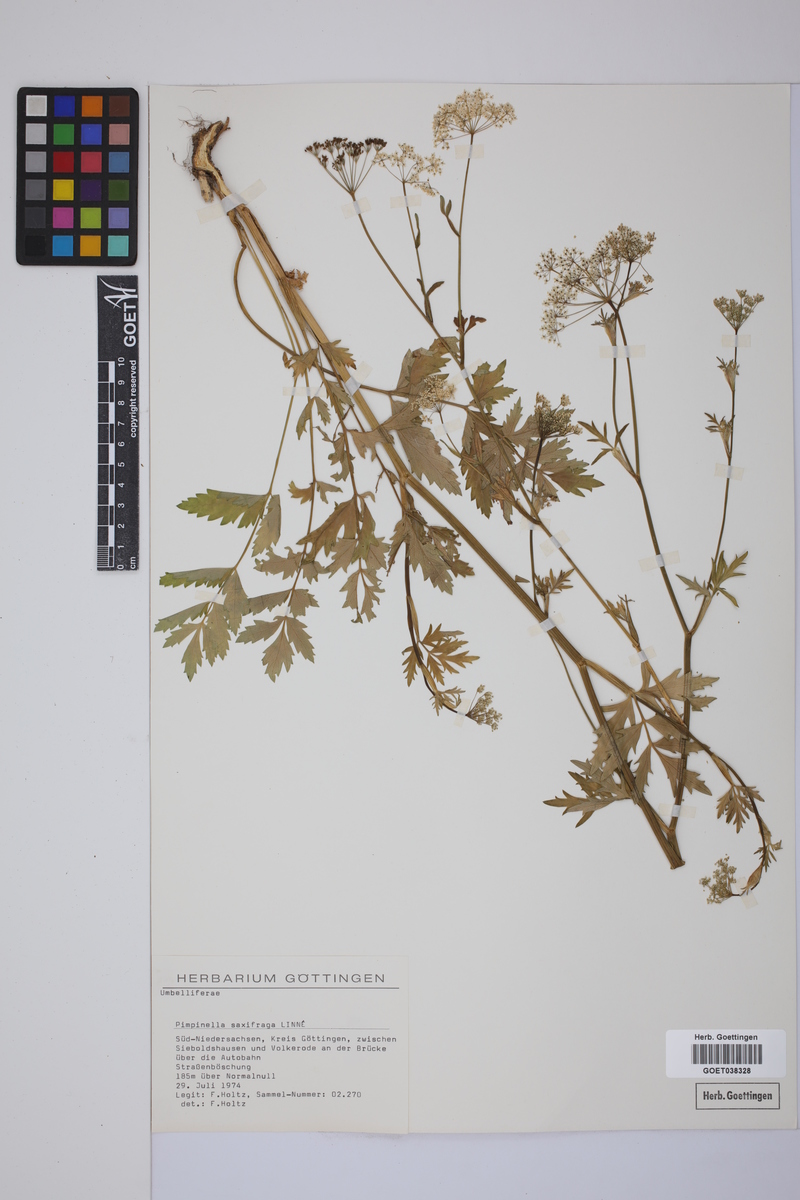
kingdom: Plantae
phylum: Tracheophyta
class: Magnoliopsida
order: Apiales
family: Apiaceae
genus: Pimpinella
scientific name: Pimpinella saxifraga
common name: Burnet-saxifrage
